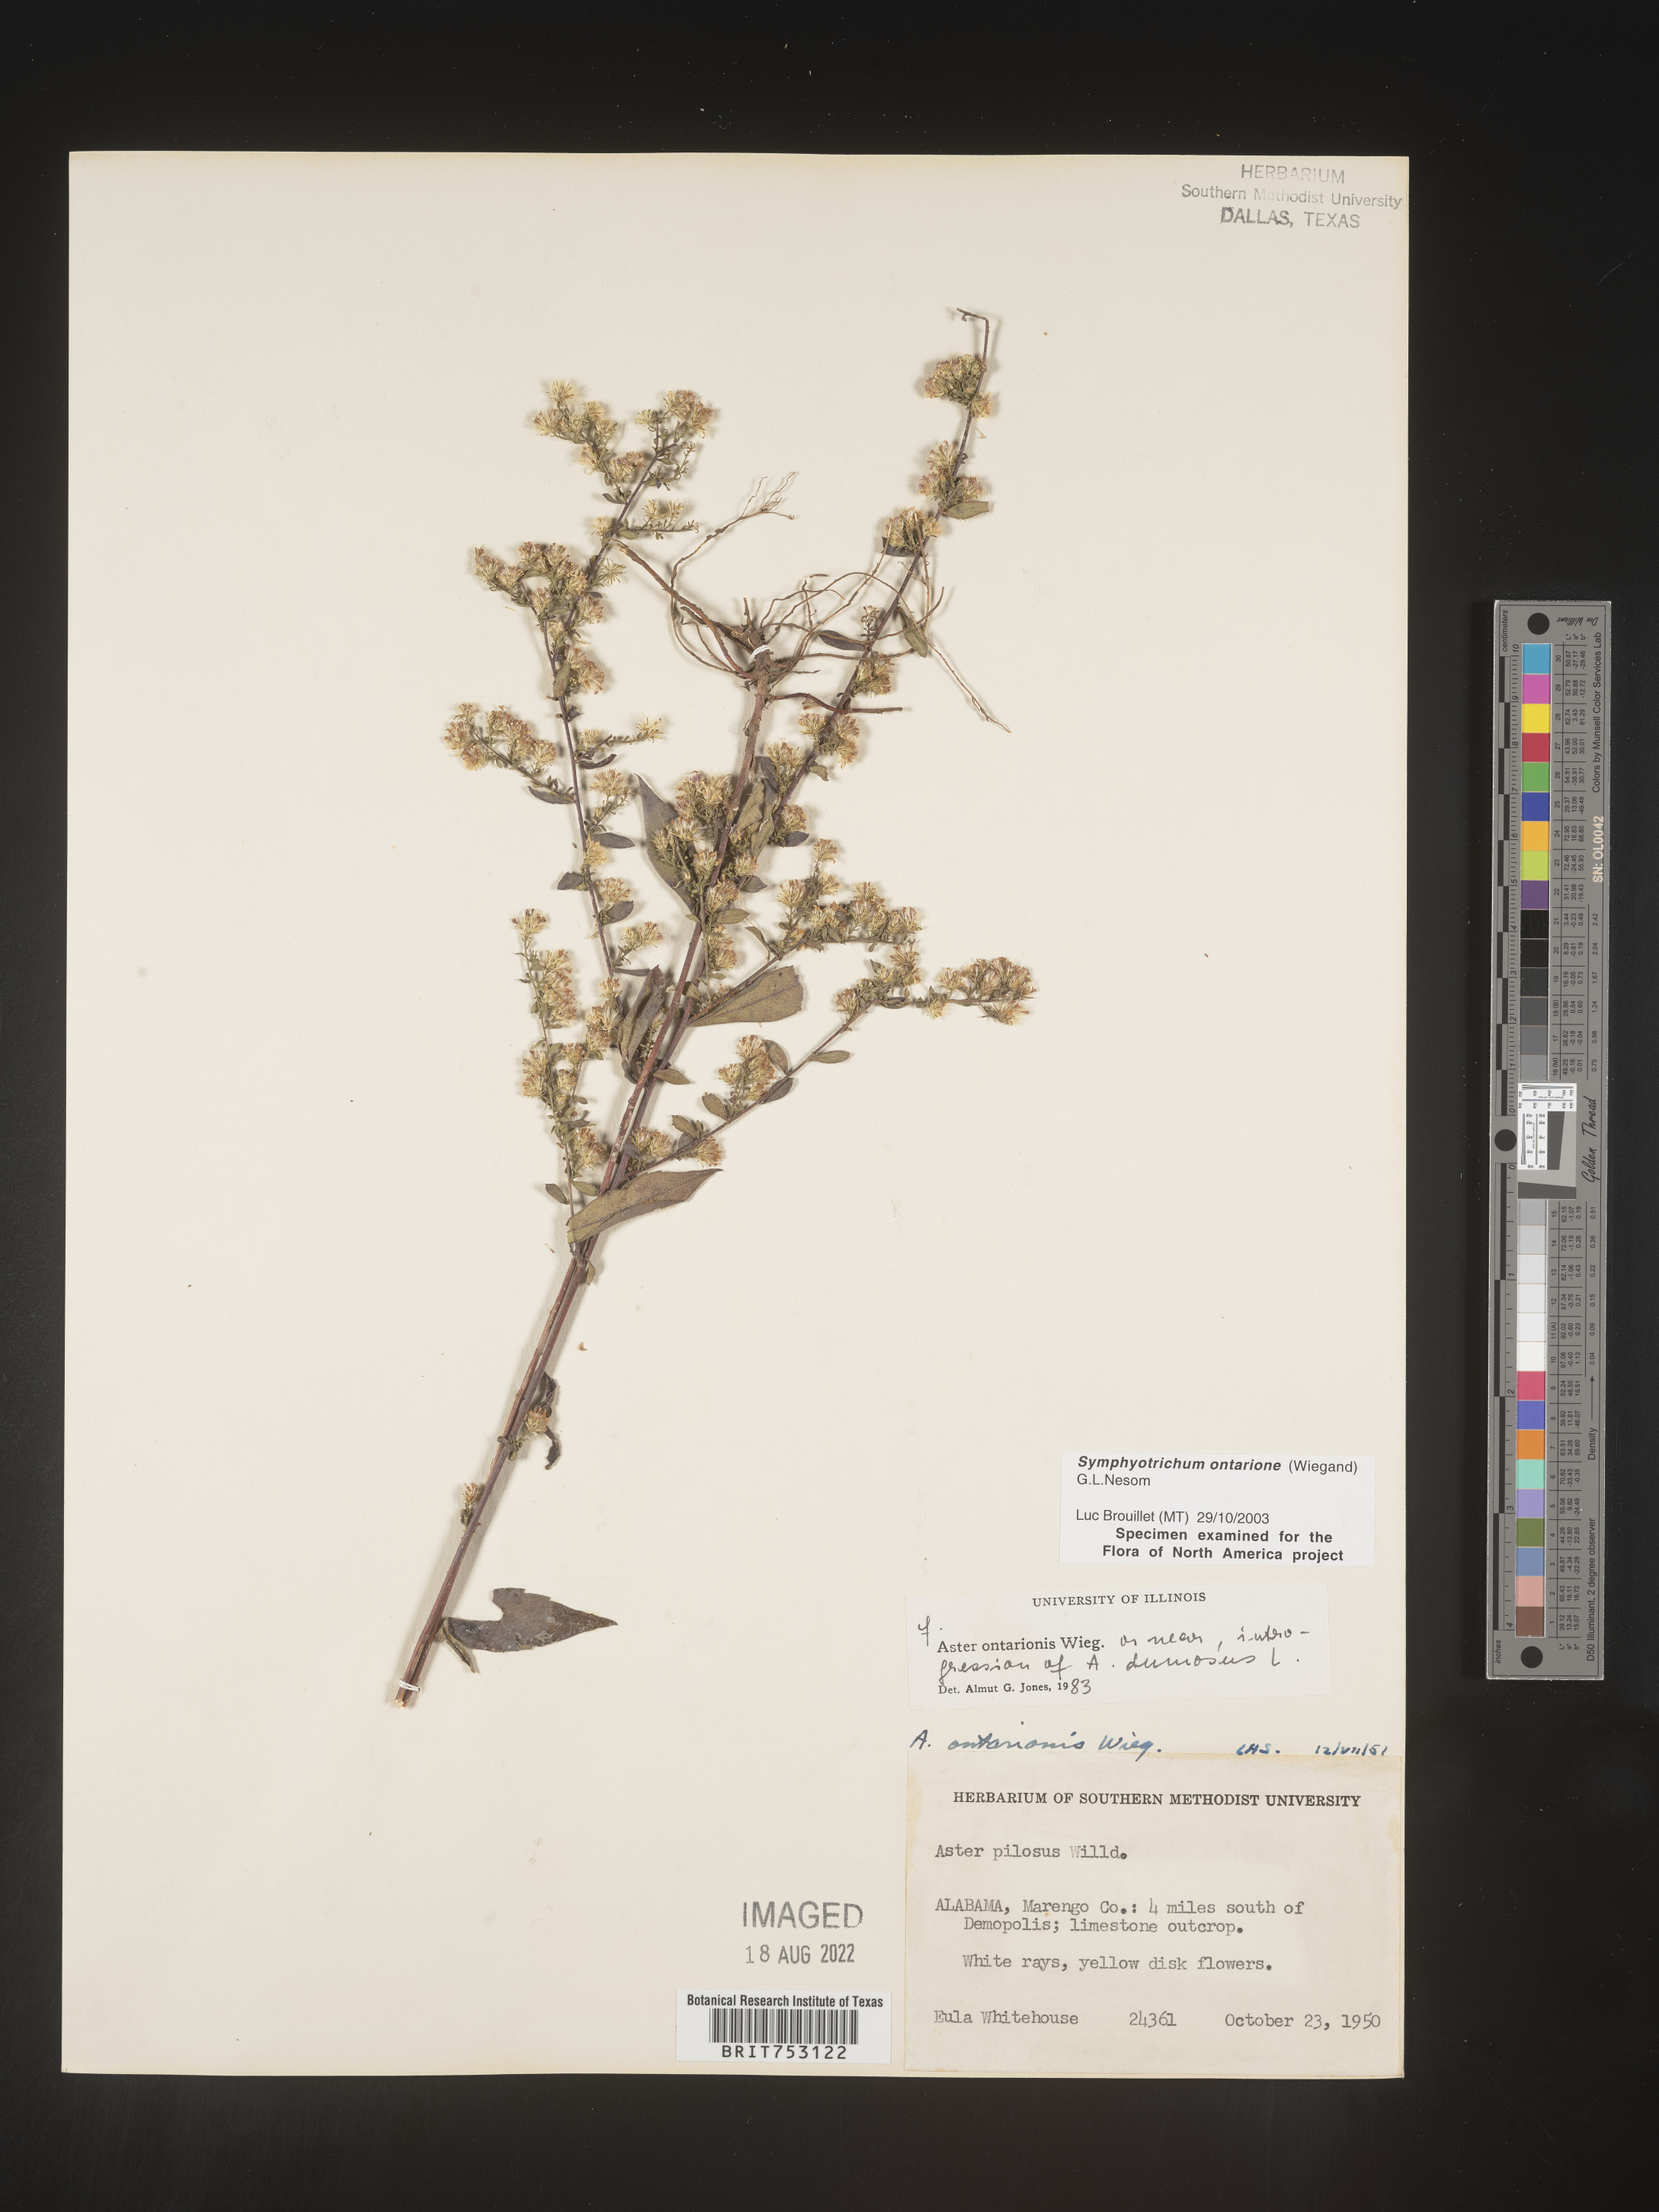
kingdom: Plantae
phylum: Tracheophyta
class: Magnoliopsida
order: Asterales
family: Asteraceae
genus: Symphyotrichum
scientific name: Symphyotrichum ontarionis
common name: Bottomland aster
